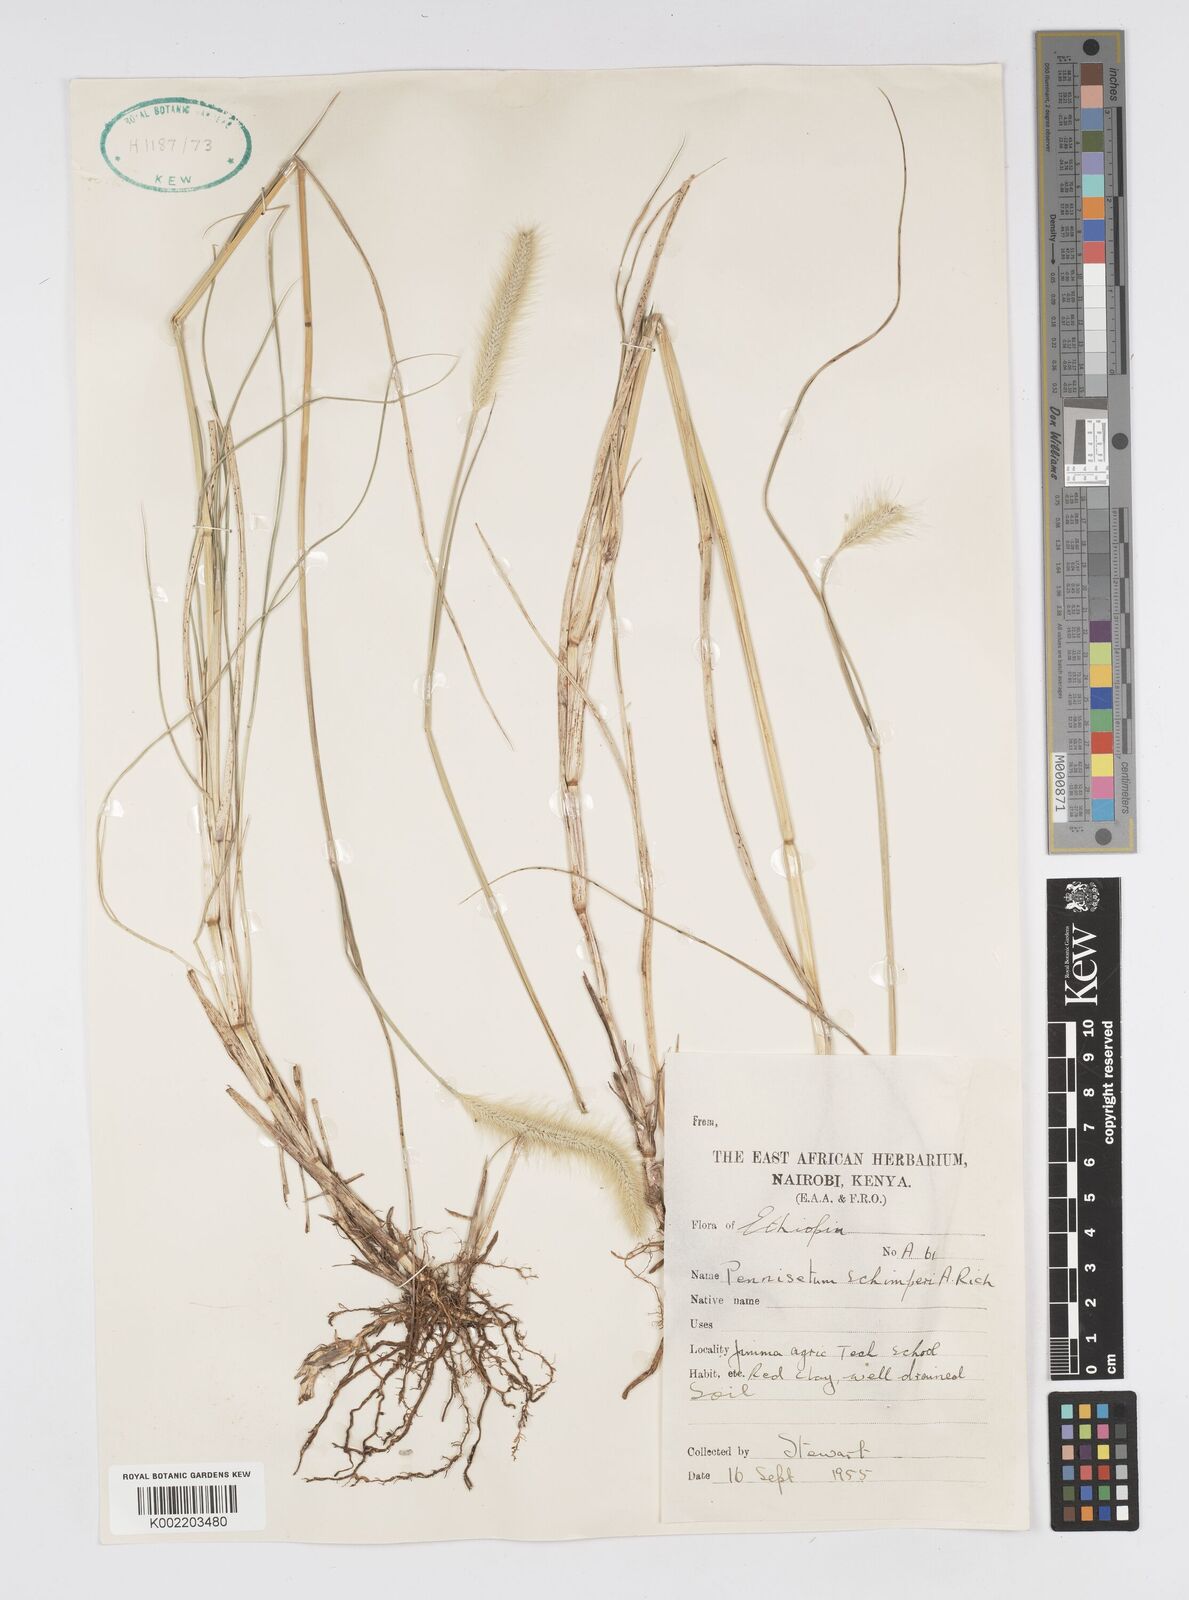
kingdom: Plantae
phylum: Tracheophyta
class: Liliopsida
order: Poales
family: Poaceae
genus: Cenchrus
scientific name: Cenchrus geniculatus
